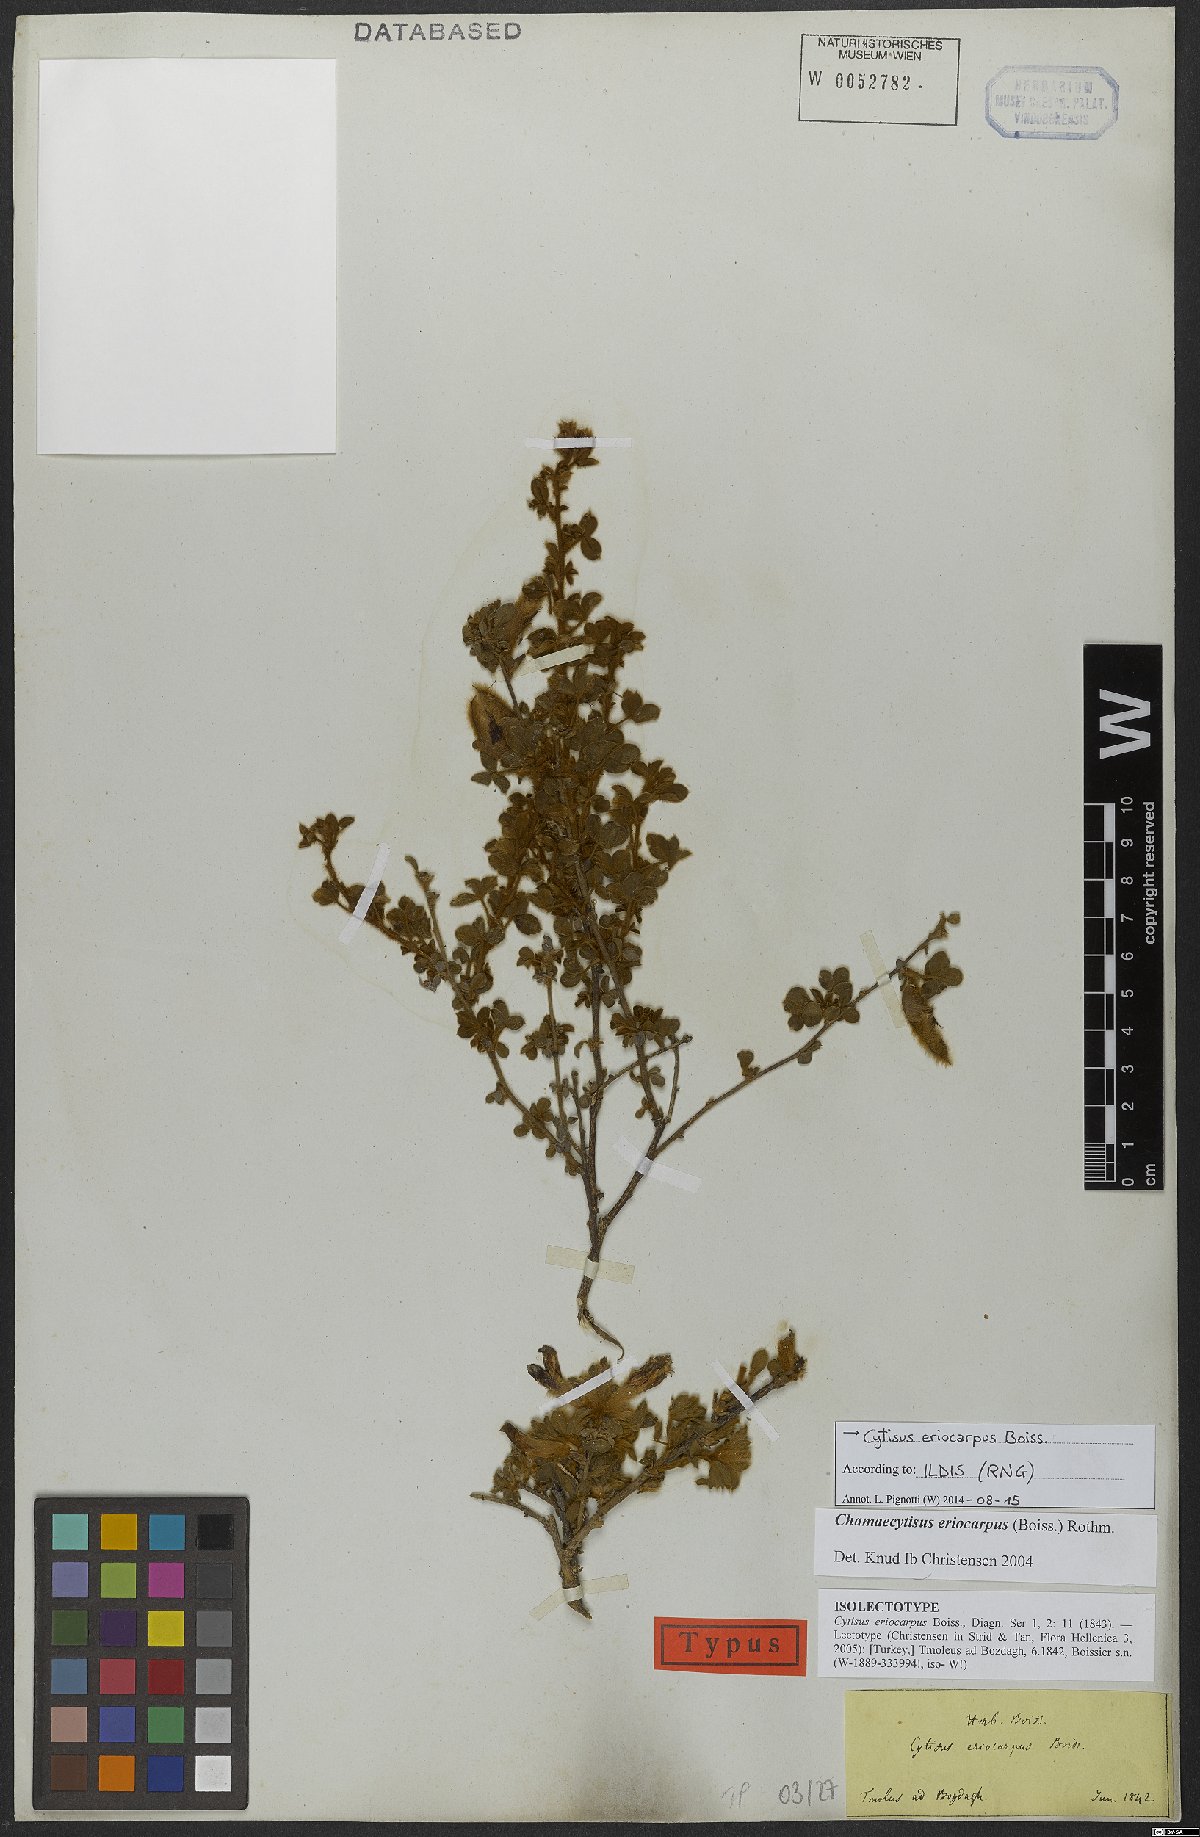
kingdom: Plantae
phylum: Tracheophyta
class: Magnoliopsida
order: Fabales
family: Fabaceae
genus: Chamaecytisus
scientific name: Chamaecytisus eriocarpus
